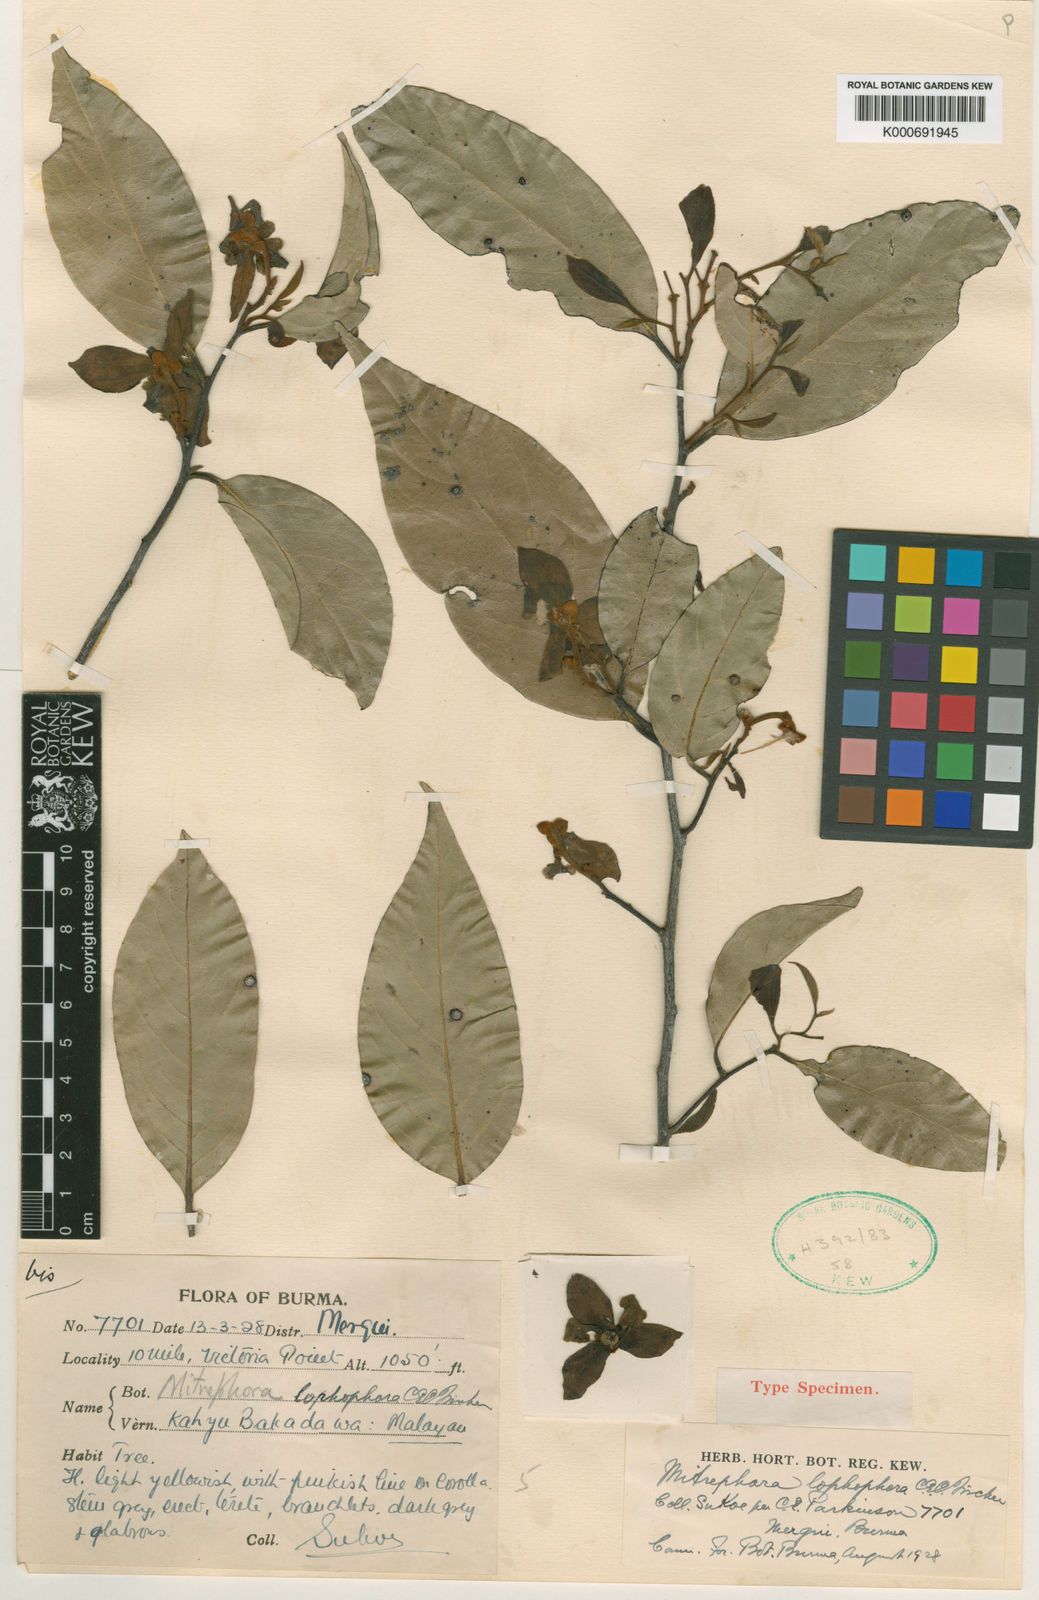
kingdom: Plantae
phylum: Tracheophyta
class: Magnoliopsida
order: Magnoliales
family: Annonaceae
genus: Mitrephora
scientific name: Mitrephora keithii
